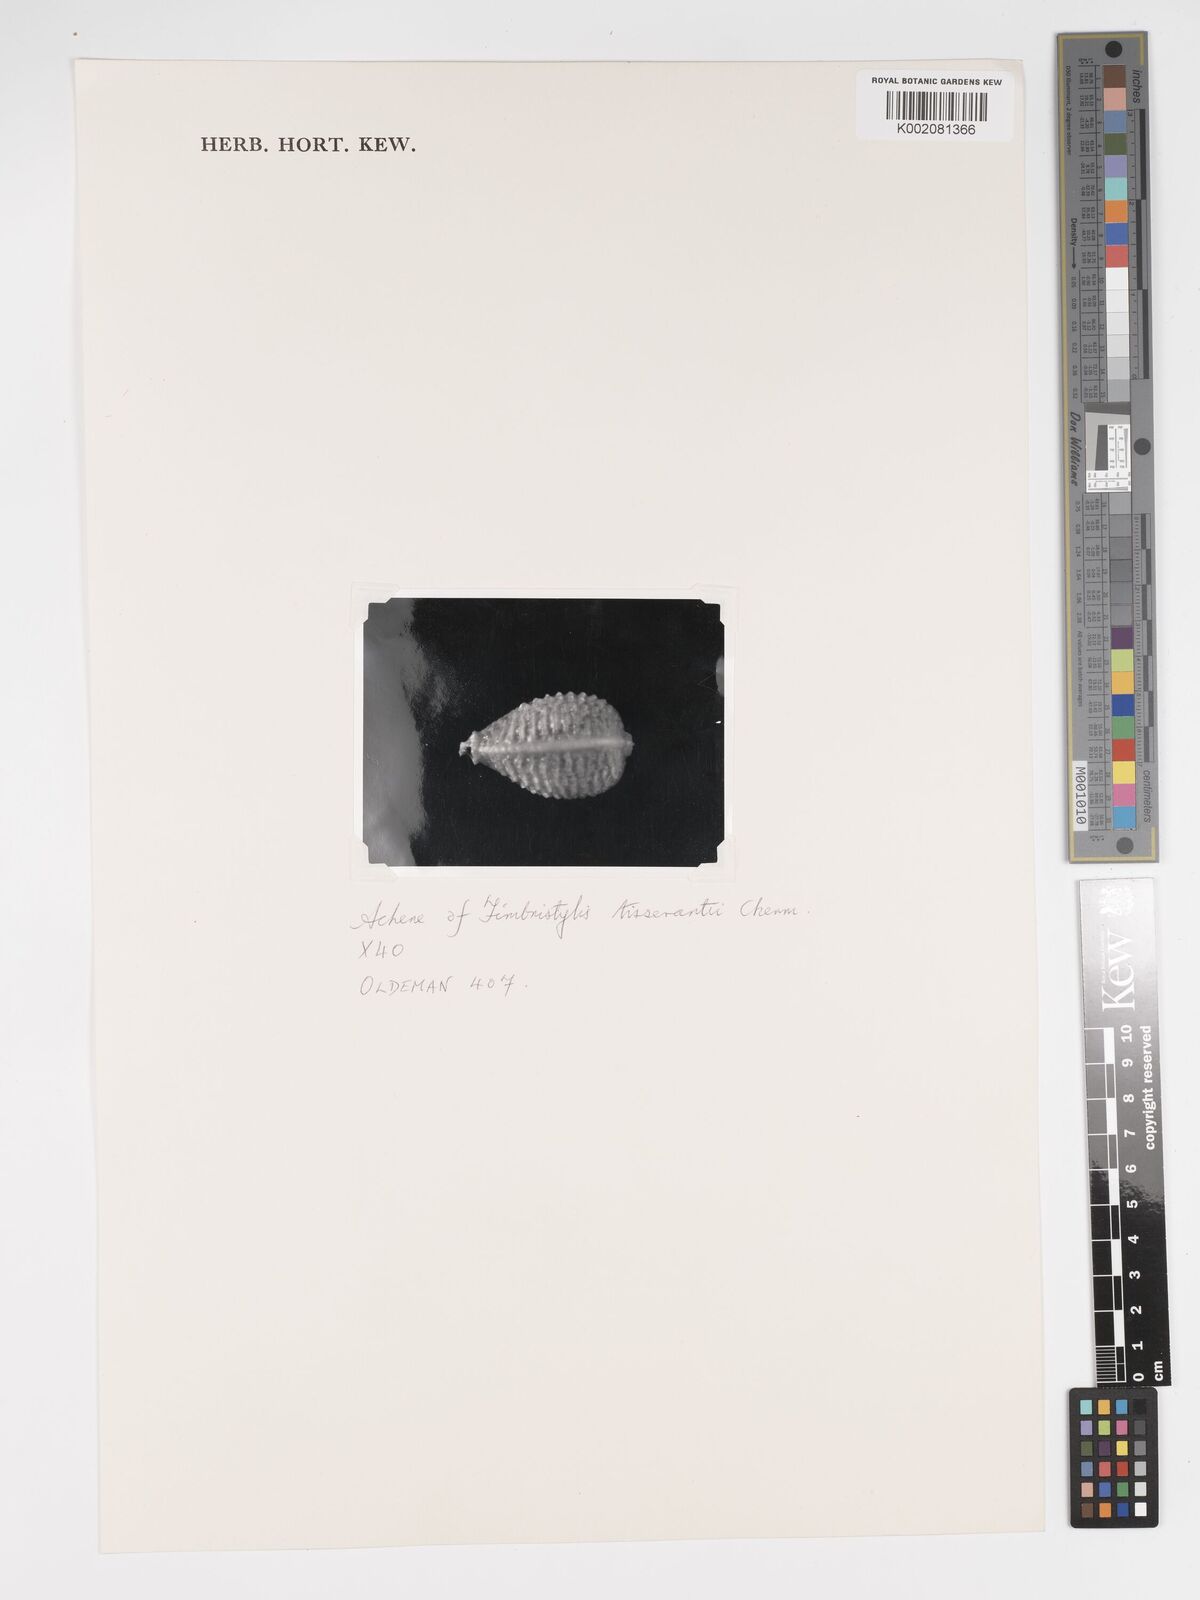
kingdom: Plantae
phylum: Tracheophyta
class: Liliopsida
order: Poales
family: Cyperaceae
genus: Bulbostylis
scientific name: Bulbostylis viridecarinata
